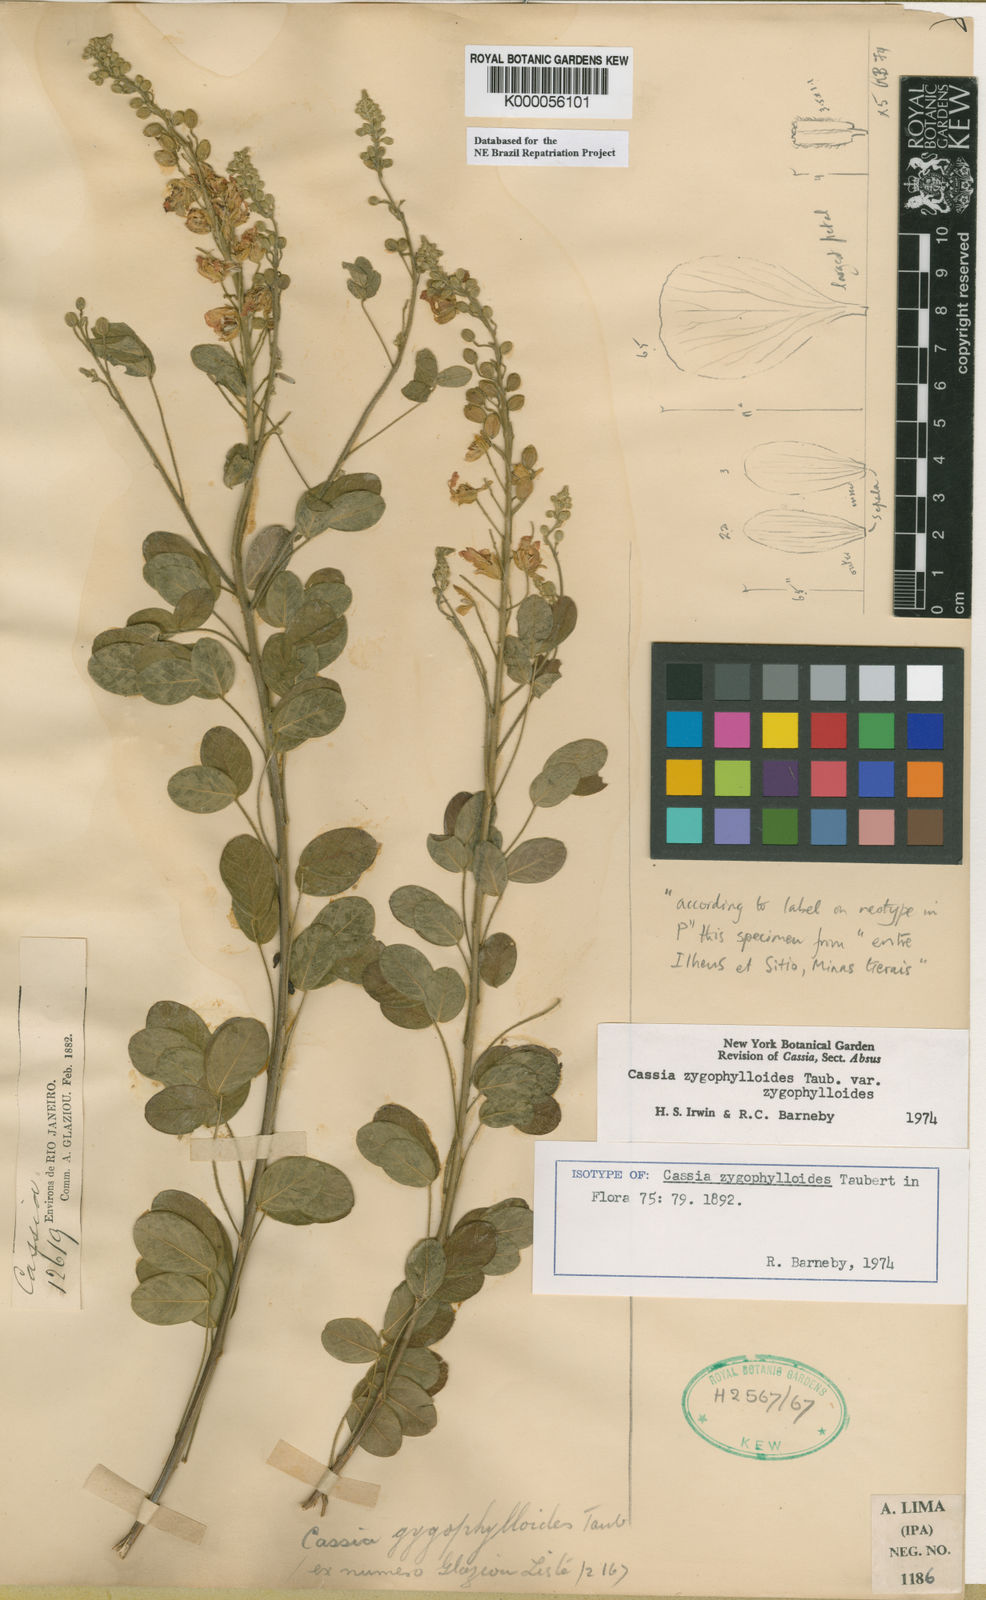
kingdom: Plantae
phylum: Tracheophyta
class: Magnoliopsida
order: Fabales
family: Fabaceae
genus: Chamaecrista
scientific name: Chamaecrista zygophylloides
